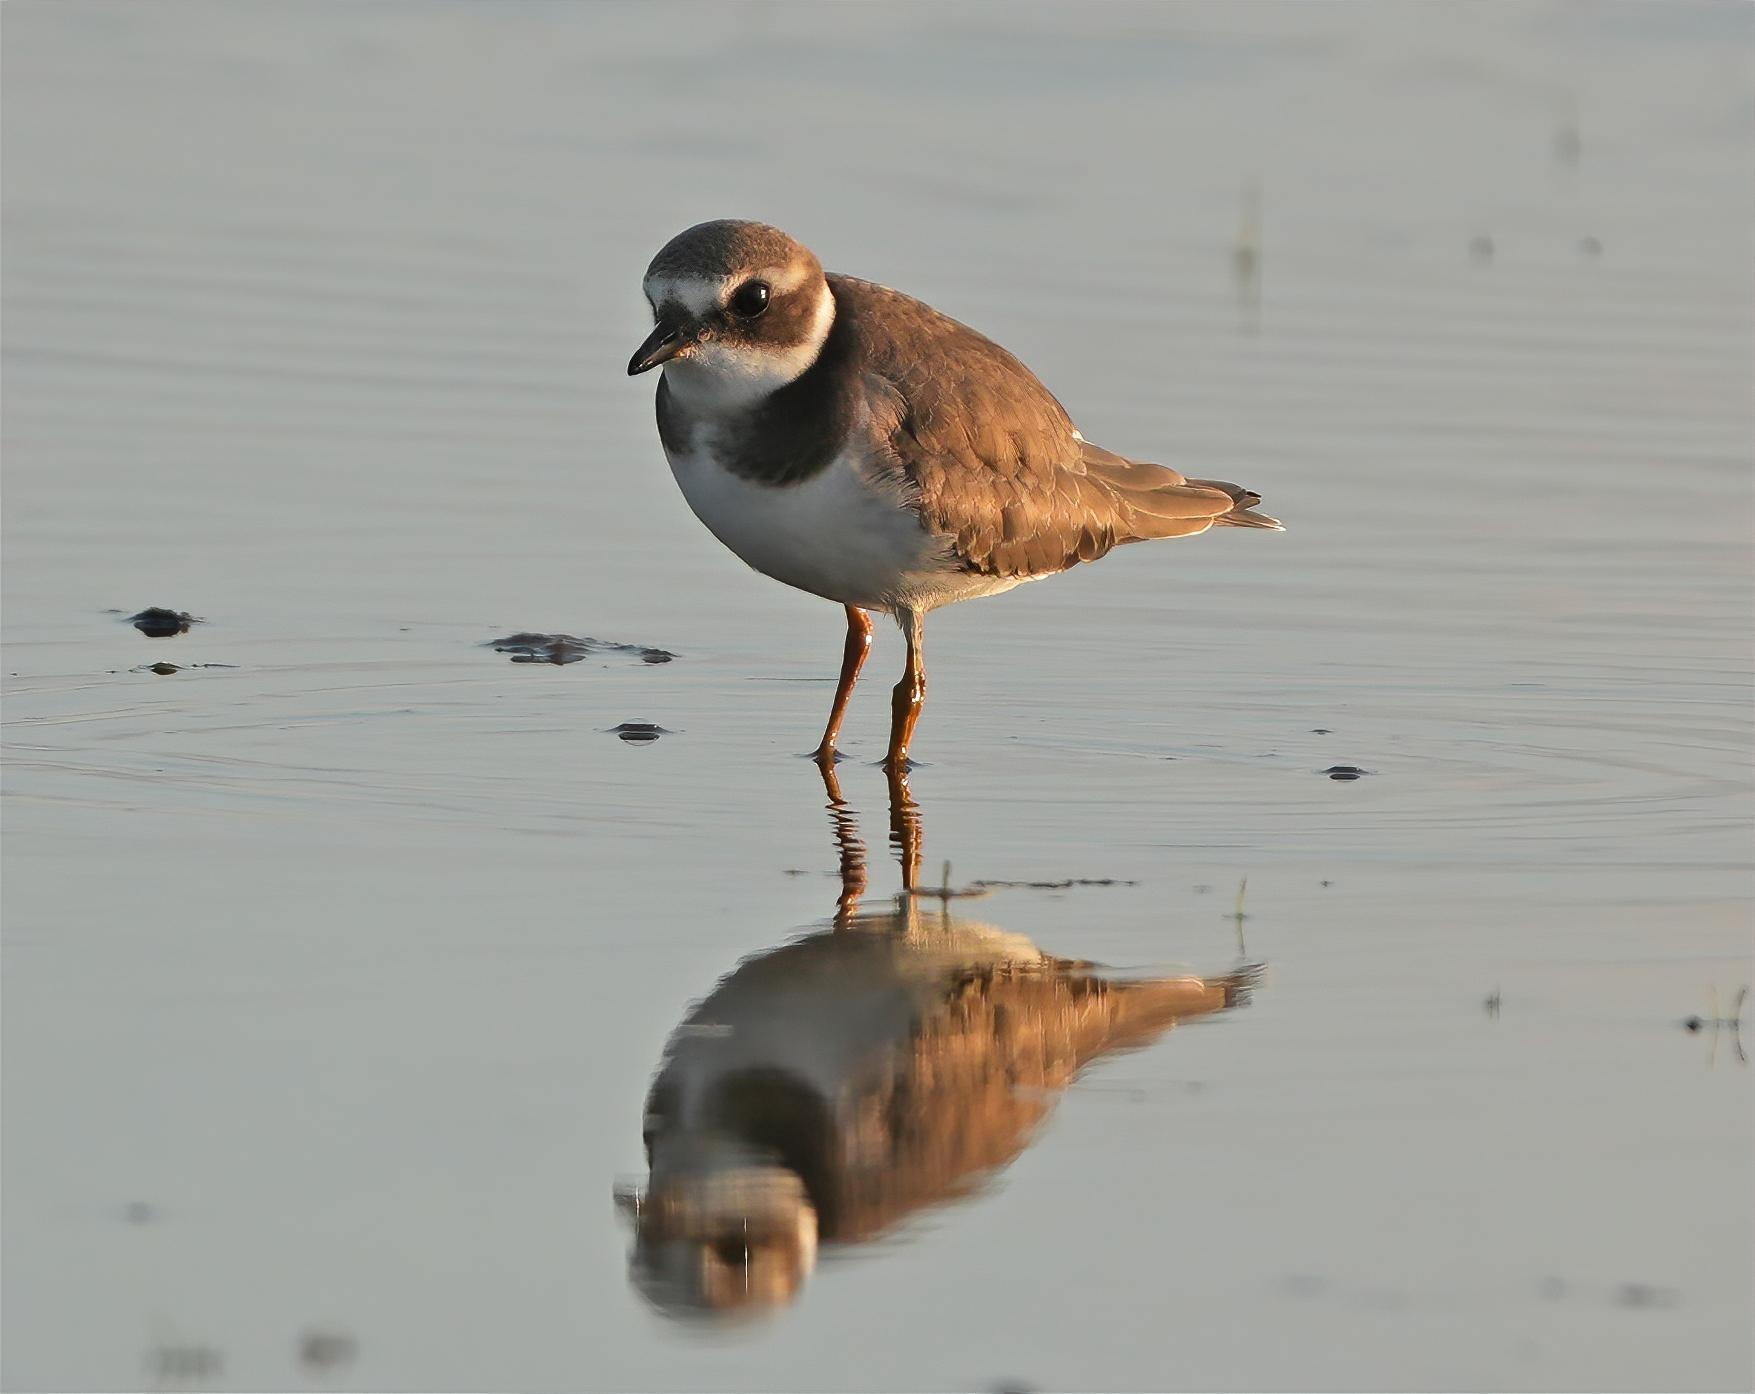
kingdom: Animalia
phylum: Chordata
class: Aves
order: Charadriiformes
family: Charadriidae
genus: Charadrius
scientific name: Charadrius hiaticula
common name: Stor præstekrave
